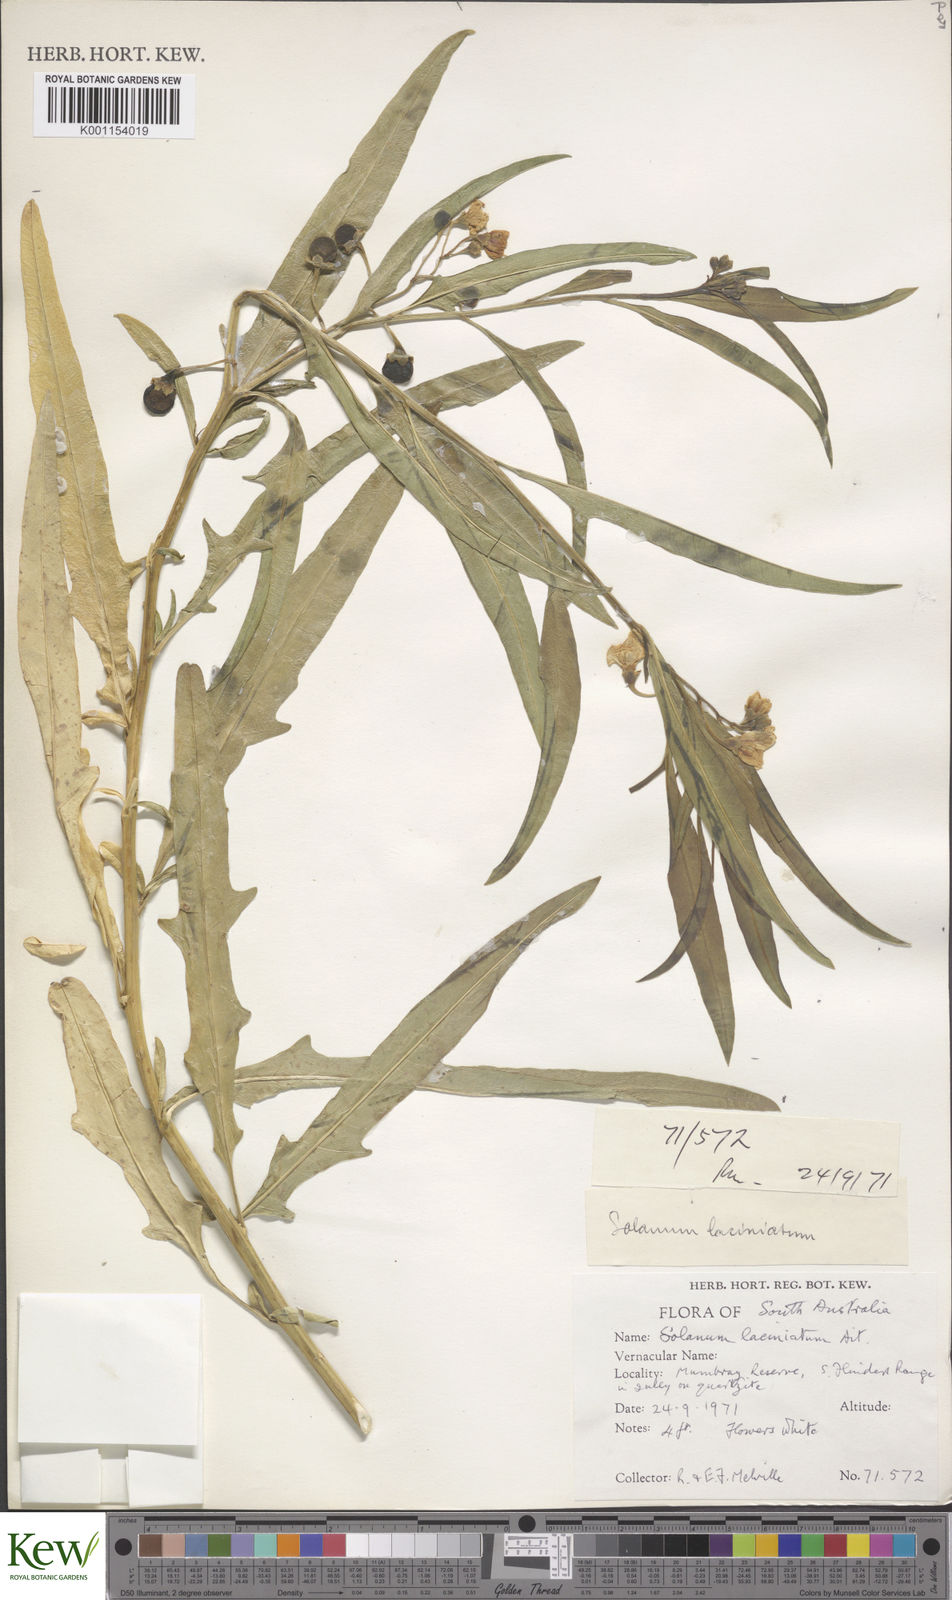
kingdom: Plantae
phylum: Tracheophyta
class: Magnoliopsida
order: Solanales
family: Solanaceae
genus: Solanum
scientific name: Solanum laciniatum
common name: Kangaroo-apple
